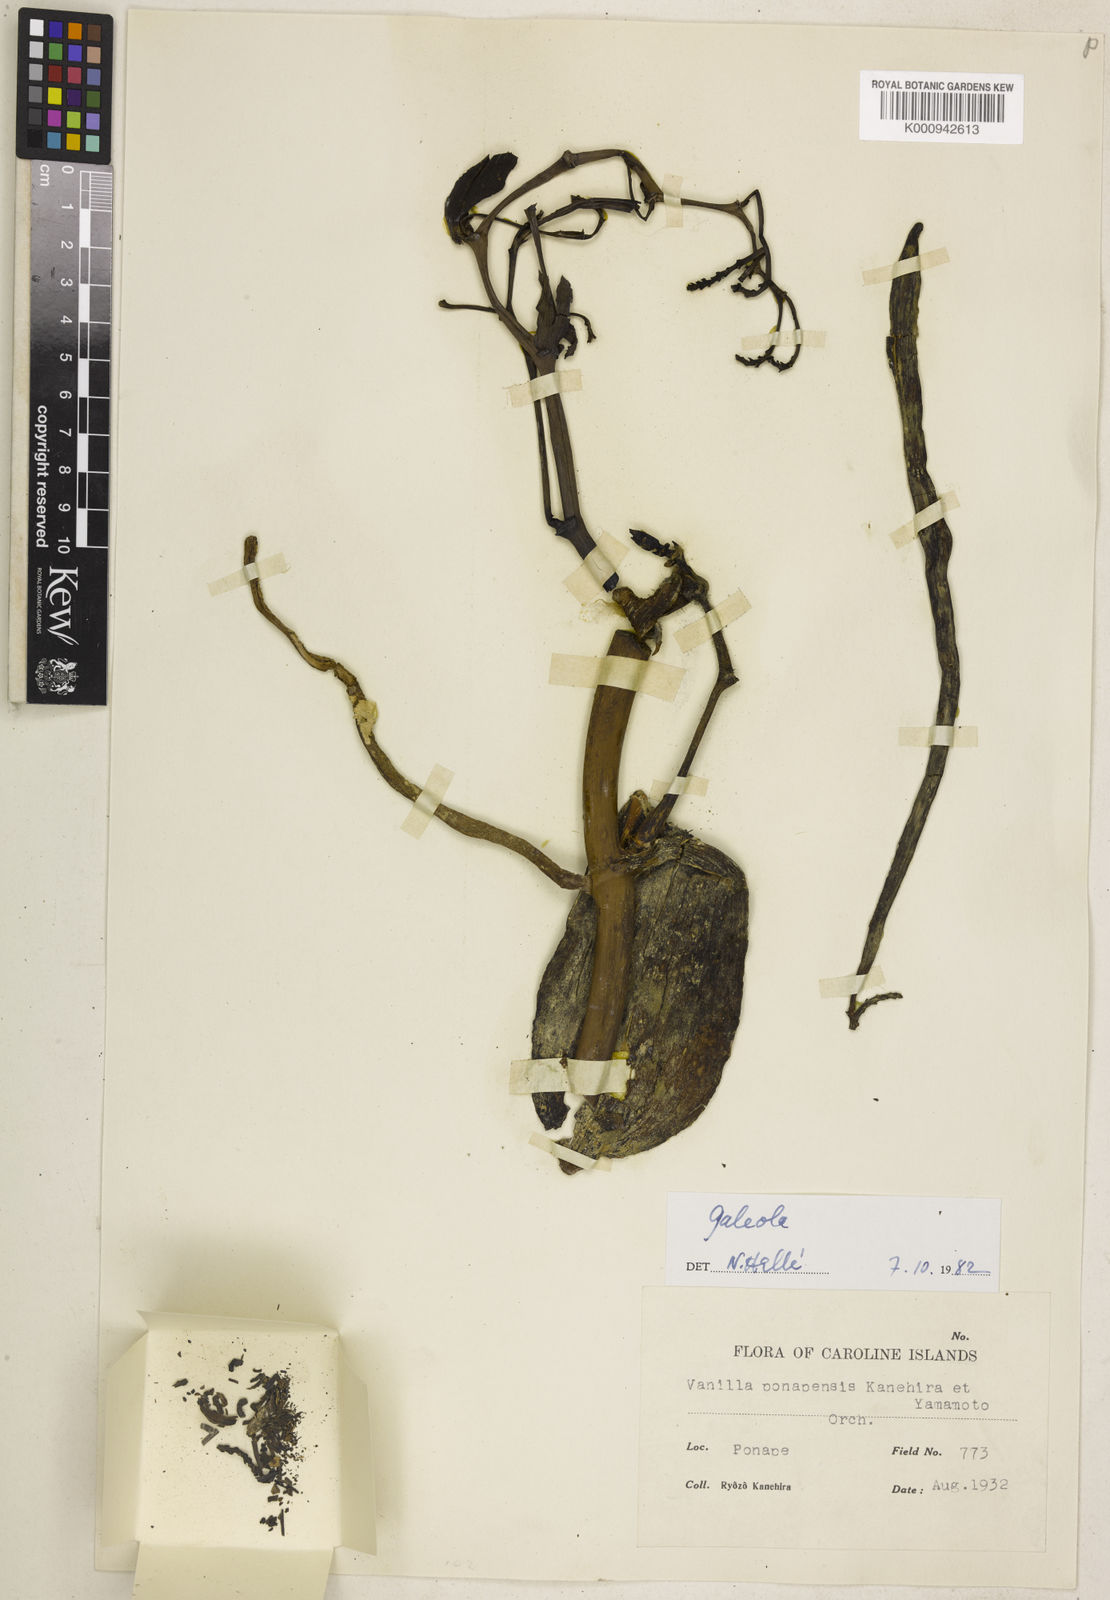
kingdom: Plantae
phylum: Tracheophyta
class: Liliopsida
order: Asparagales
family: Orchidaceae
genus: Pseudovanilla
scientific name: Pseudovanilla ponapensis
